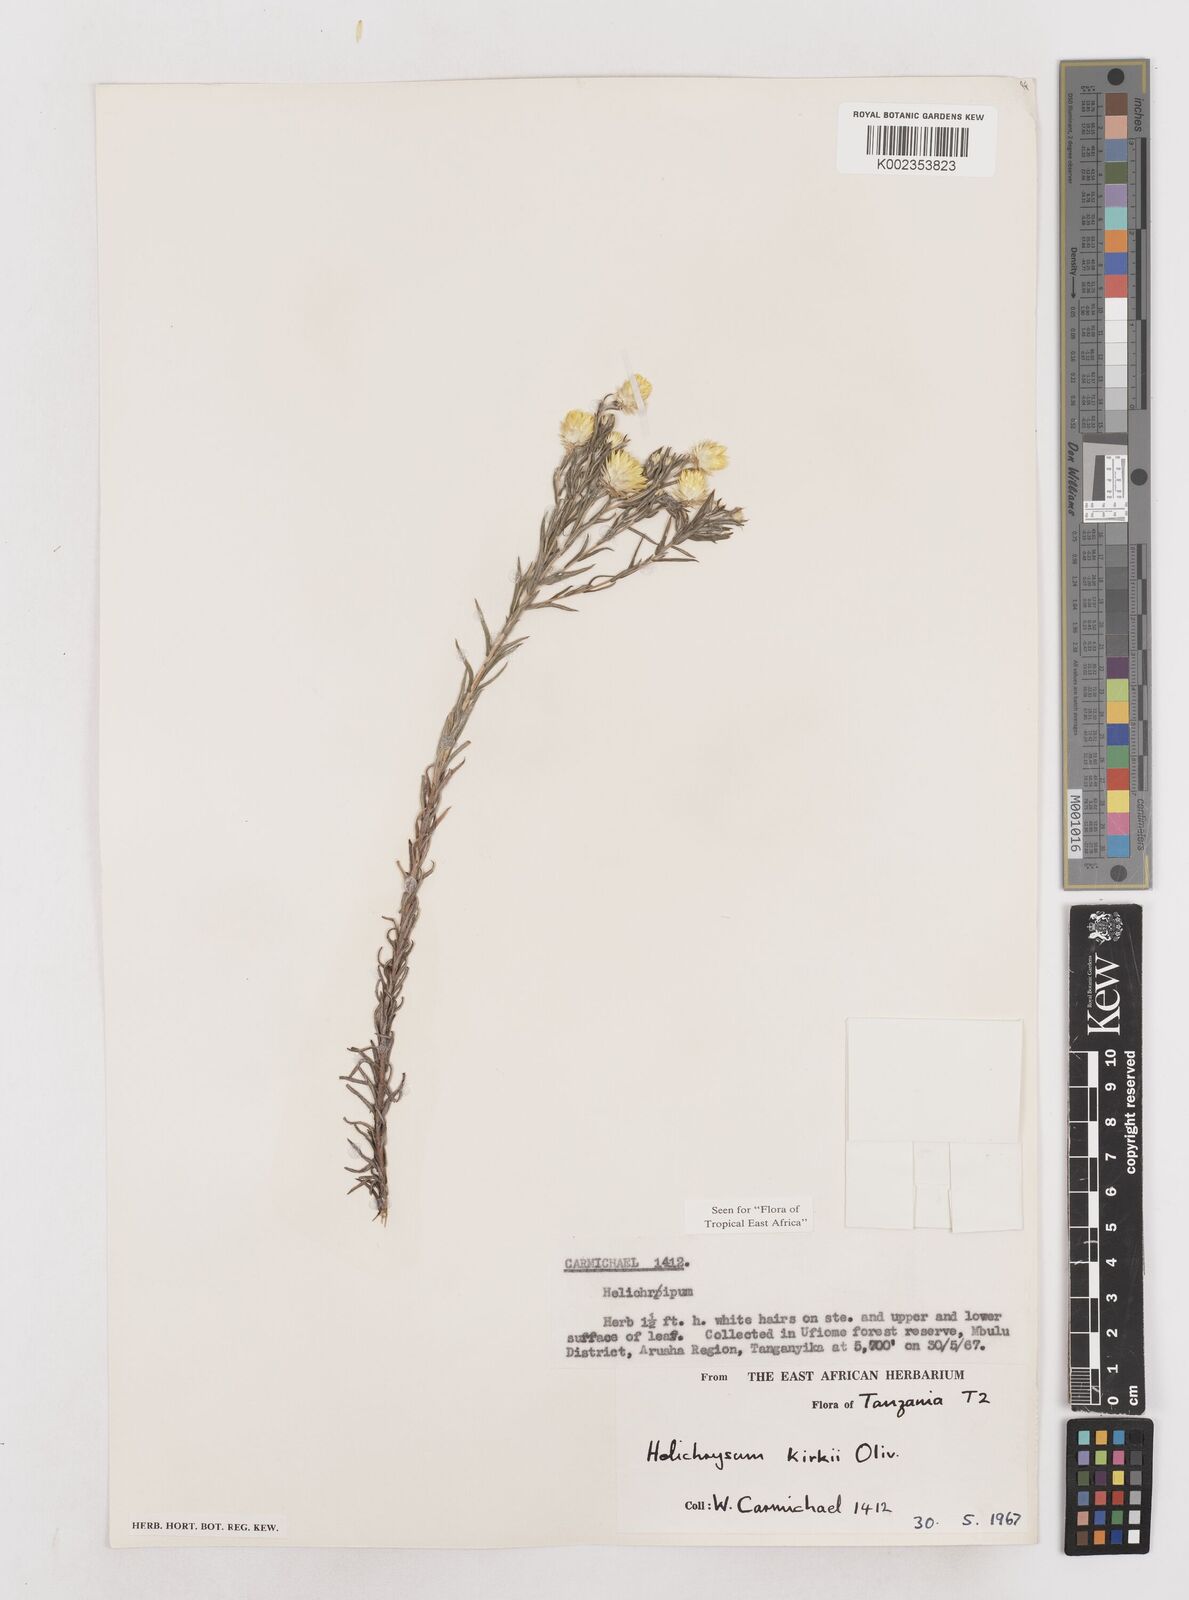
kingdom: Plantae
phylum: Tracheophyta
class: Magnoliopsida
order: Asterales
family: Asteraceae
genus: Helichrysum
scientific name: Helichrysum kirkii
